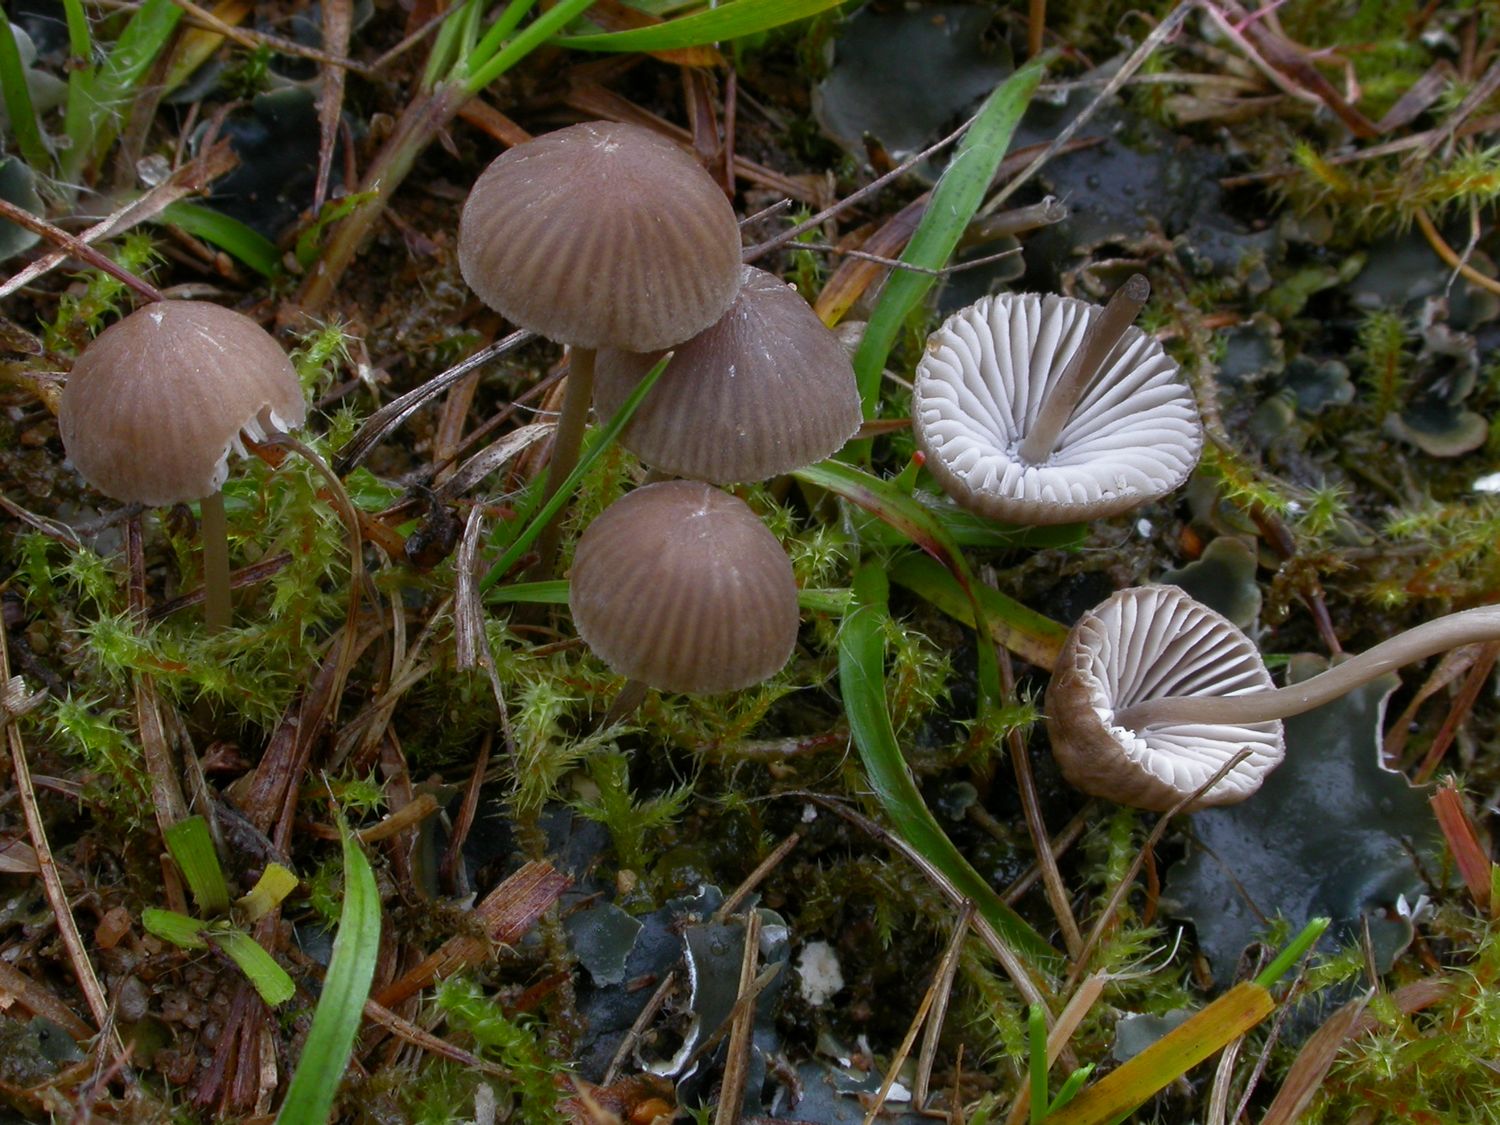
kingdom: Fungi
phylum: Basidiomycota
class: Agaricomycetes
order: Agaricales
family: Mycenaceae
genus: Mycena
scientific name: Mycena filopes
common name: jod-huesvamp
